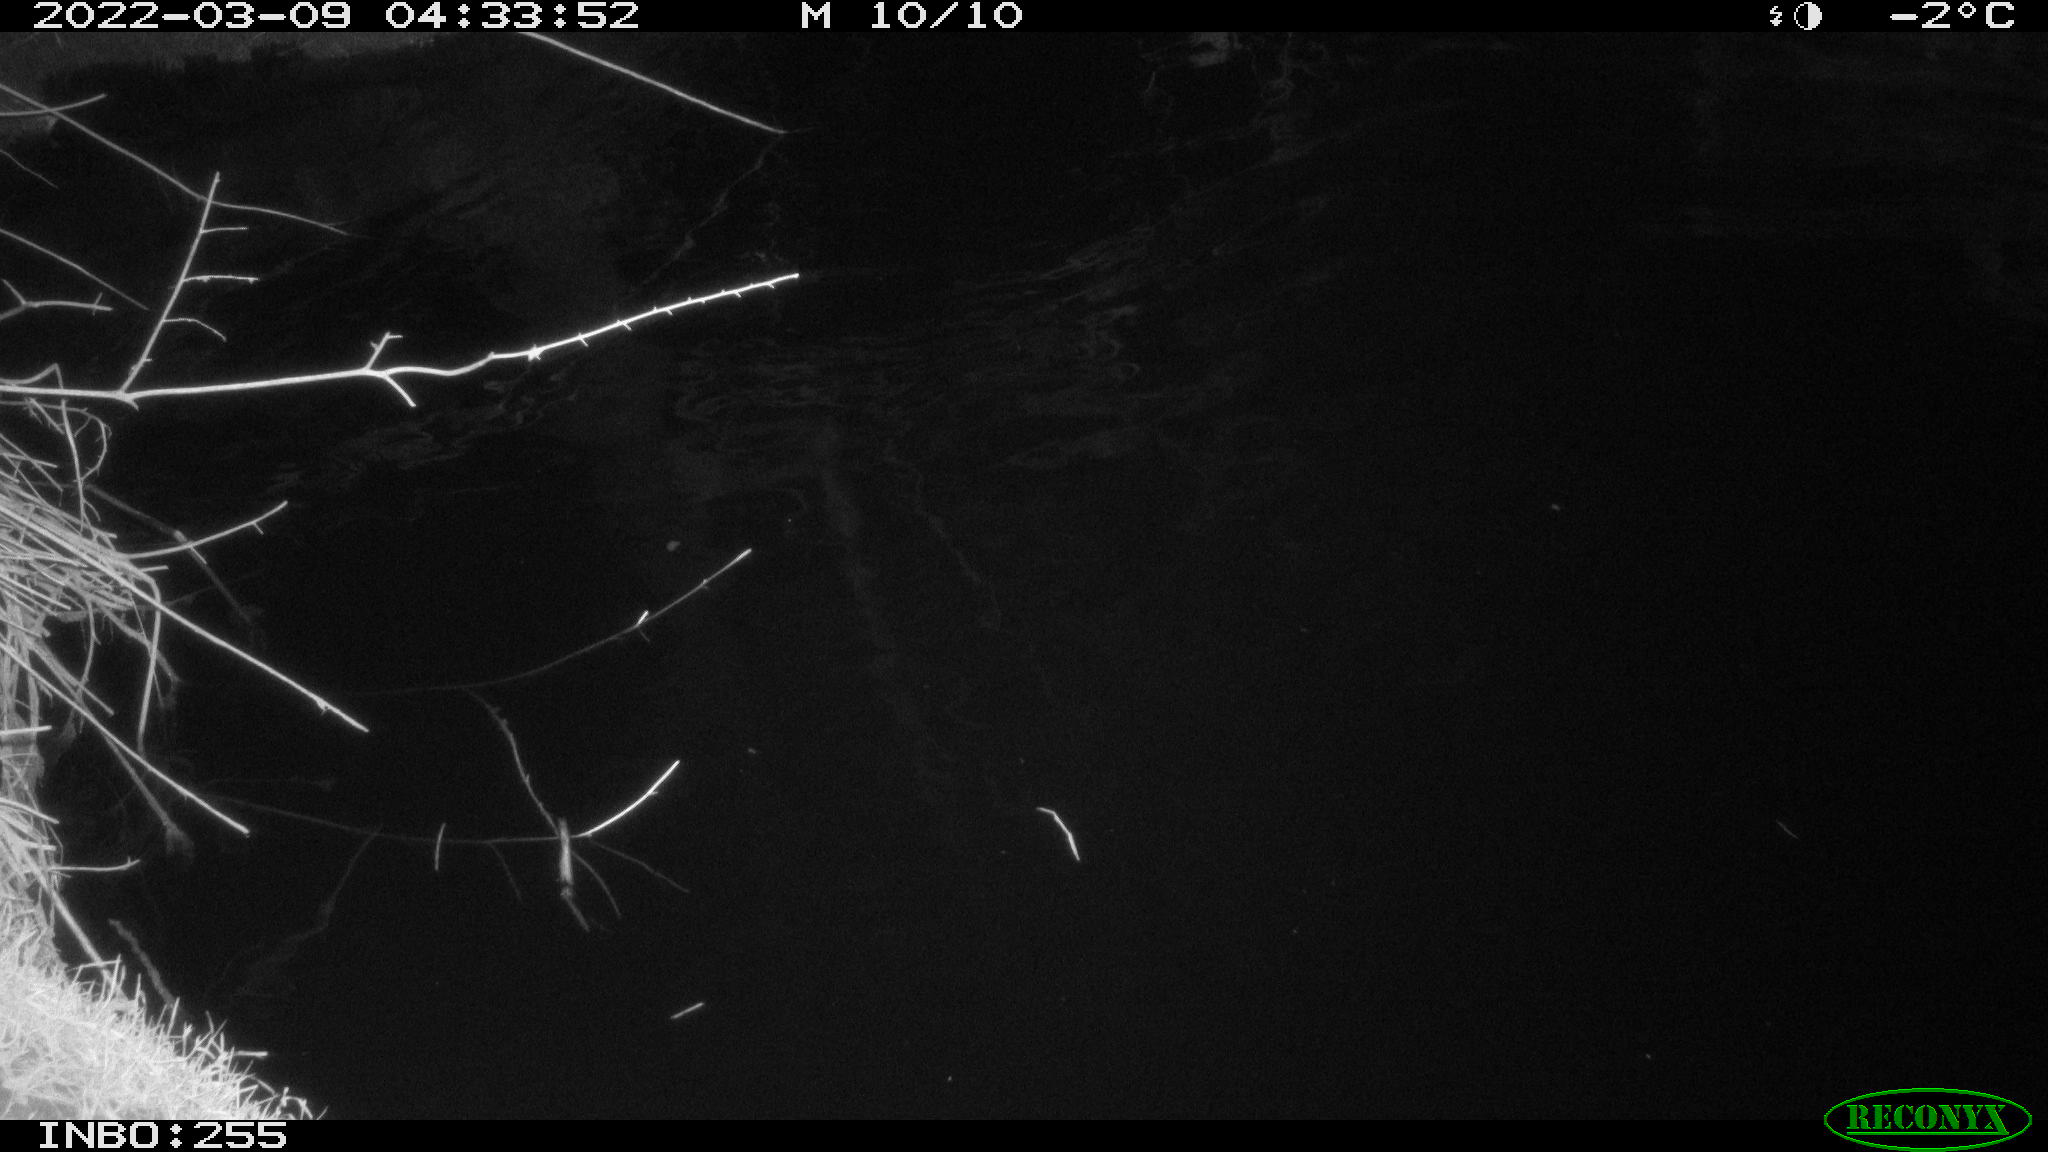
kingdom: Animalia
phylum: Chordata
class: Aves
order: Anseriformes
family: Anatidae
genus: Anas
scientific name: Anas platyrhynchos
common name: Mallard
